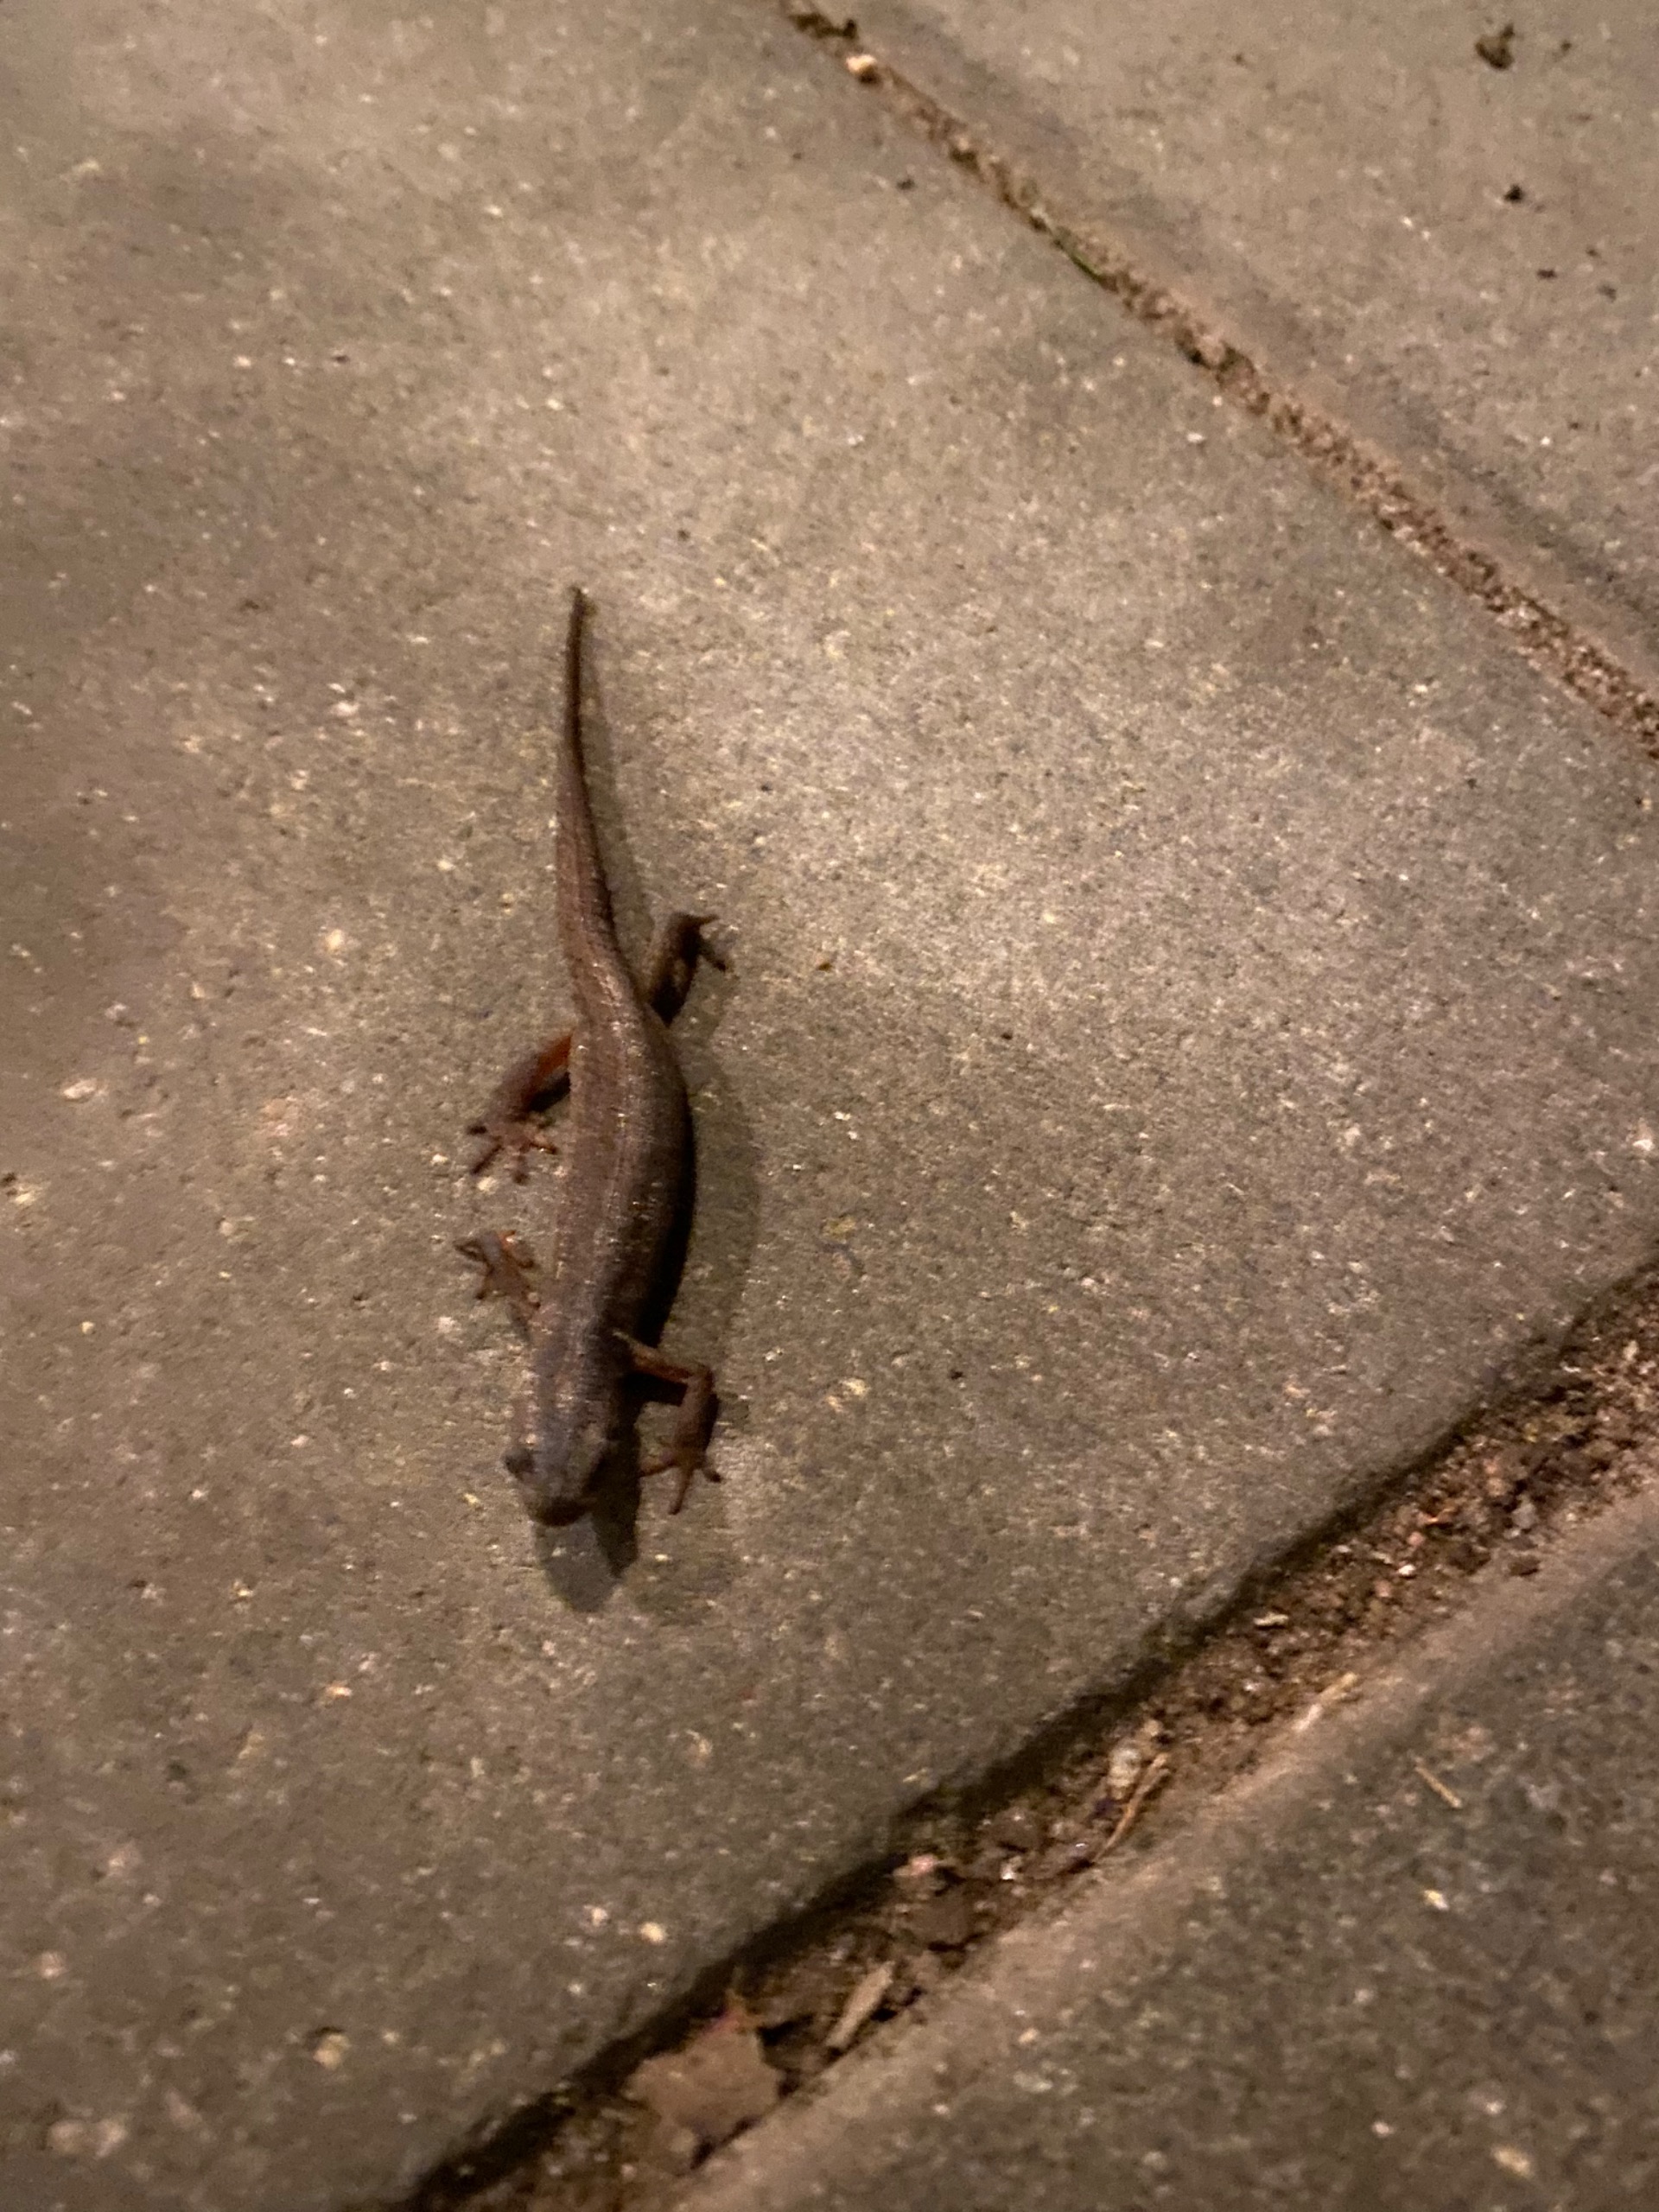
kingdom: Animalia
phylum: Chordata
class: Amphibia
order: Caudata
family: Salamandridae
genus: Lissotriton
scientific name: Lissotriton vulgaris
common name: Lille vandsalamander
